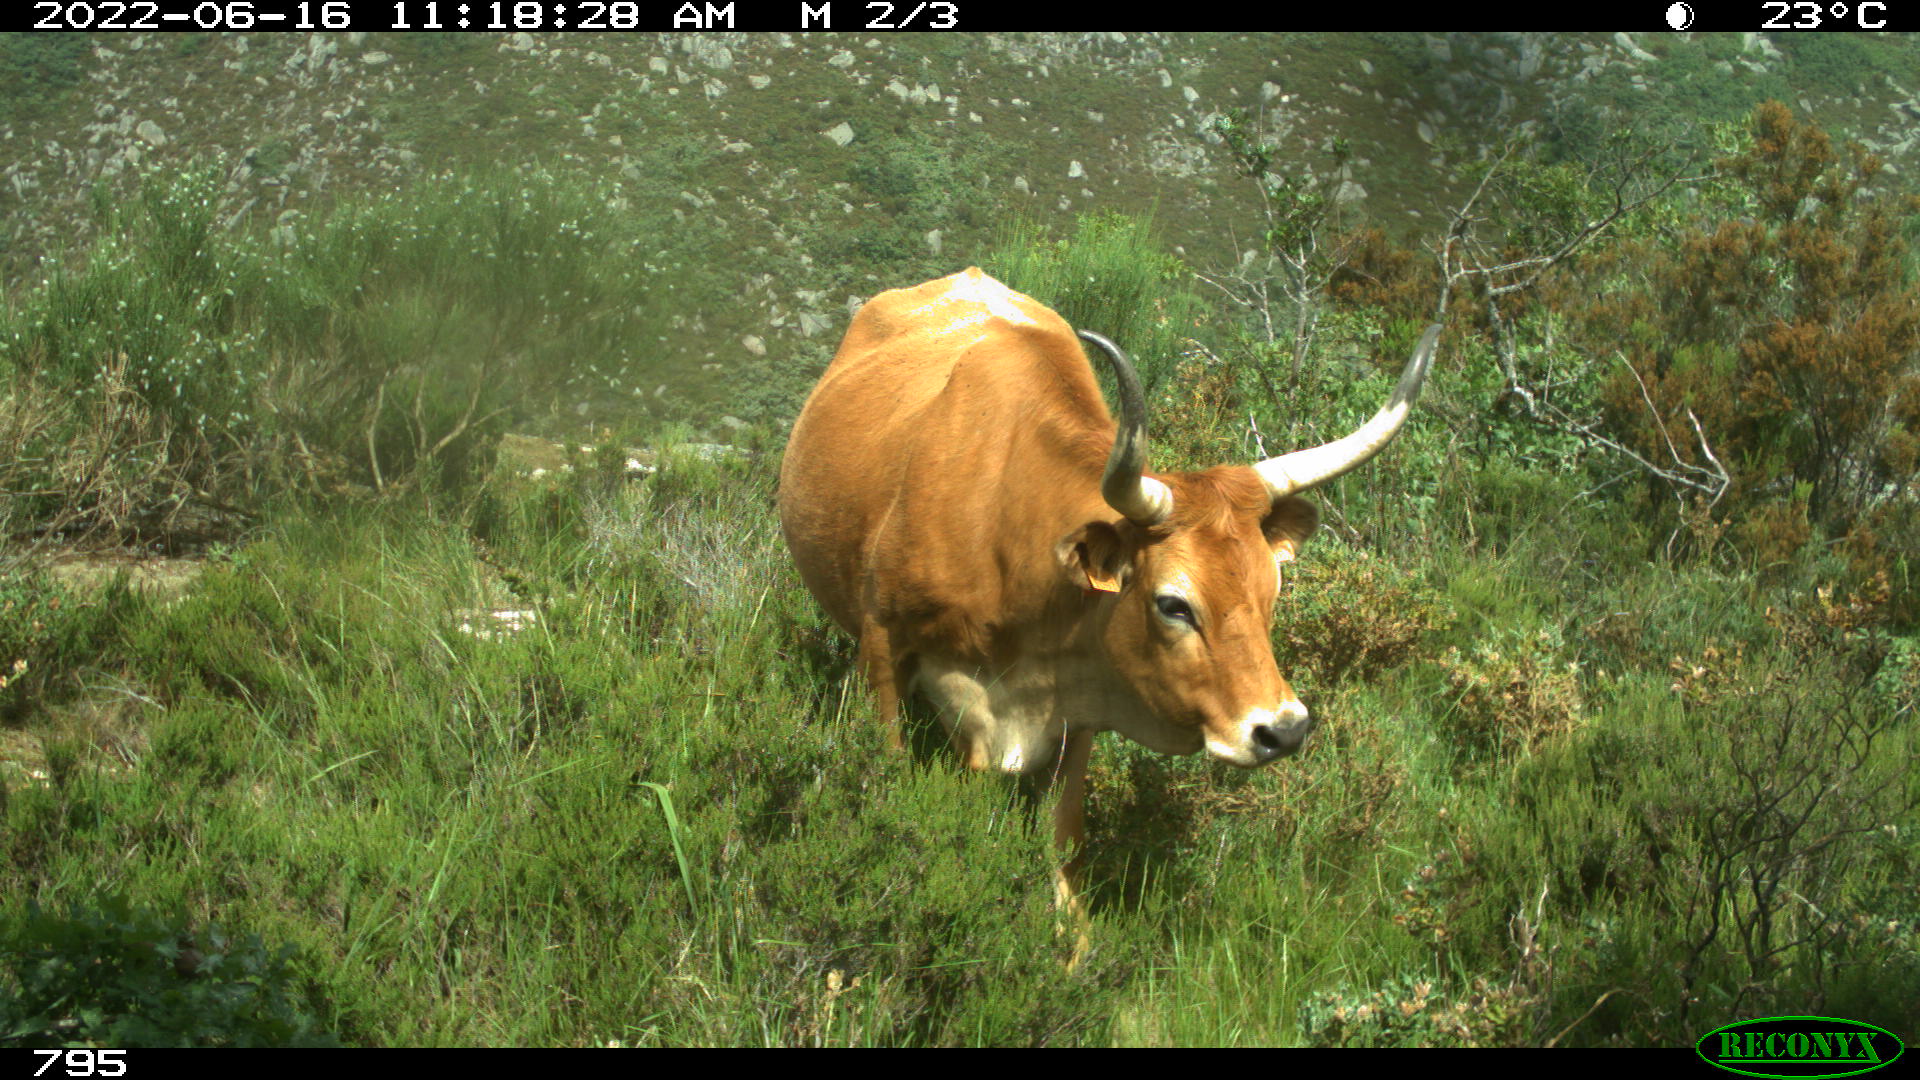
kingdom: Animalia
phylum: Chordata
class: Mammalia
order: Artiodactyla
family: Bovidae
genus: Bos
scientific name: Bos taurus
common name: Domesticated cattle
